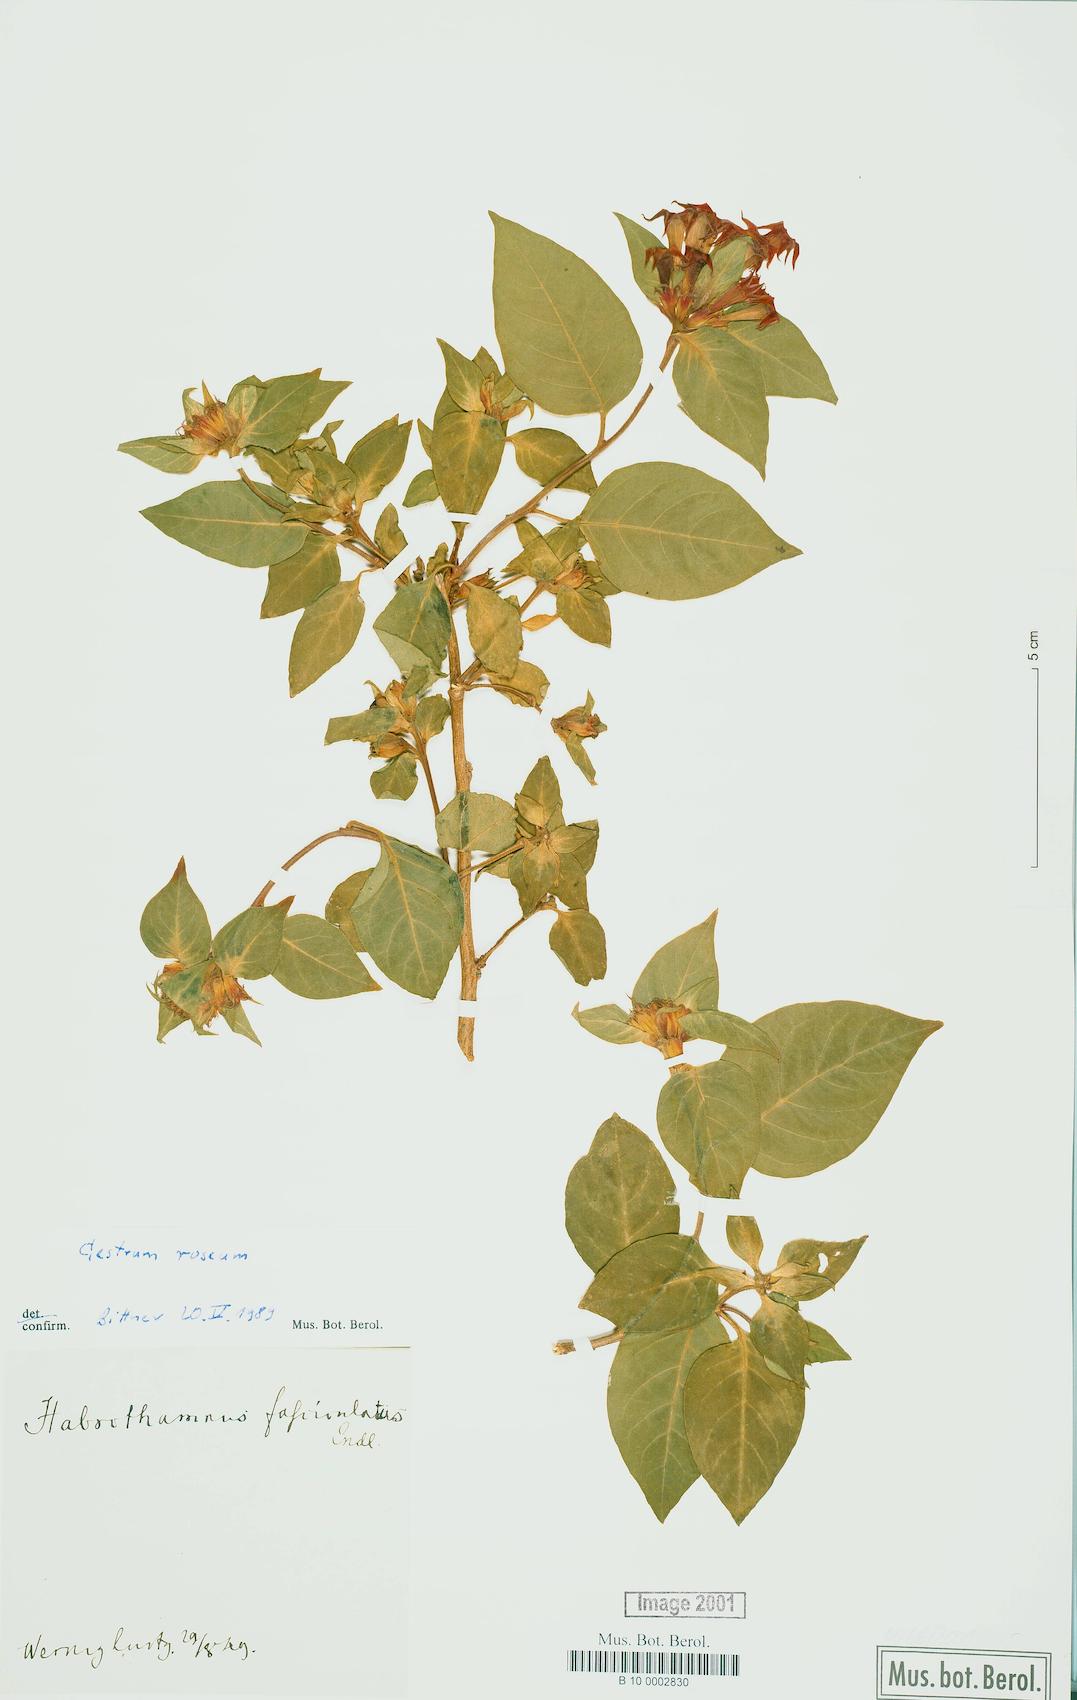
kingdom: Plantae
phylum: Tracheophyta
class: Magnoliopsida
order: Solanales
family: Solanaceae
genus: Cestrum
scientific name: Cestrum roseum
